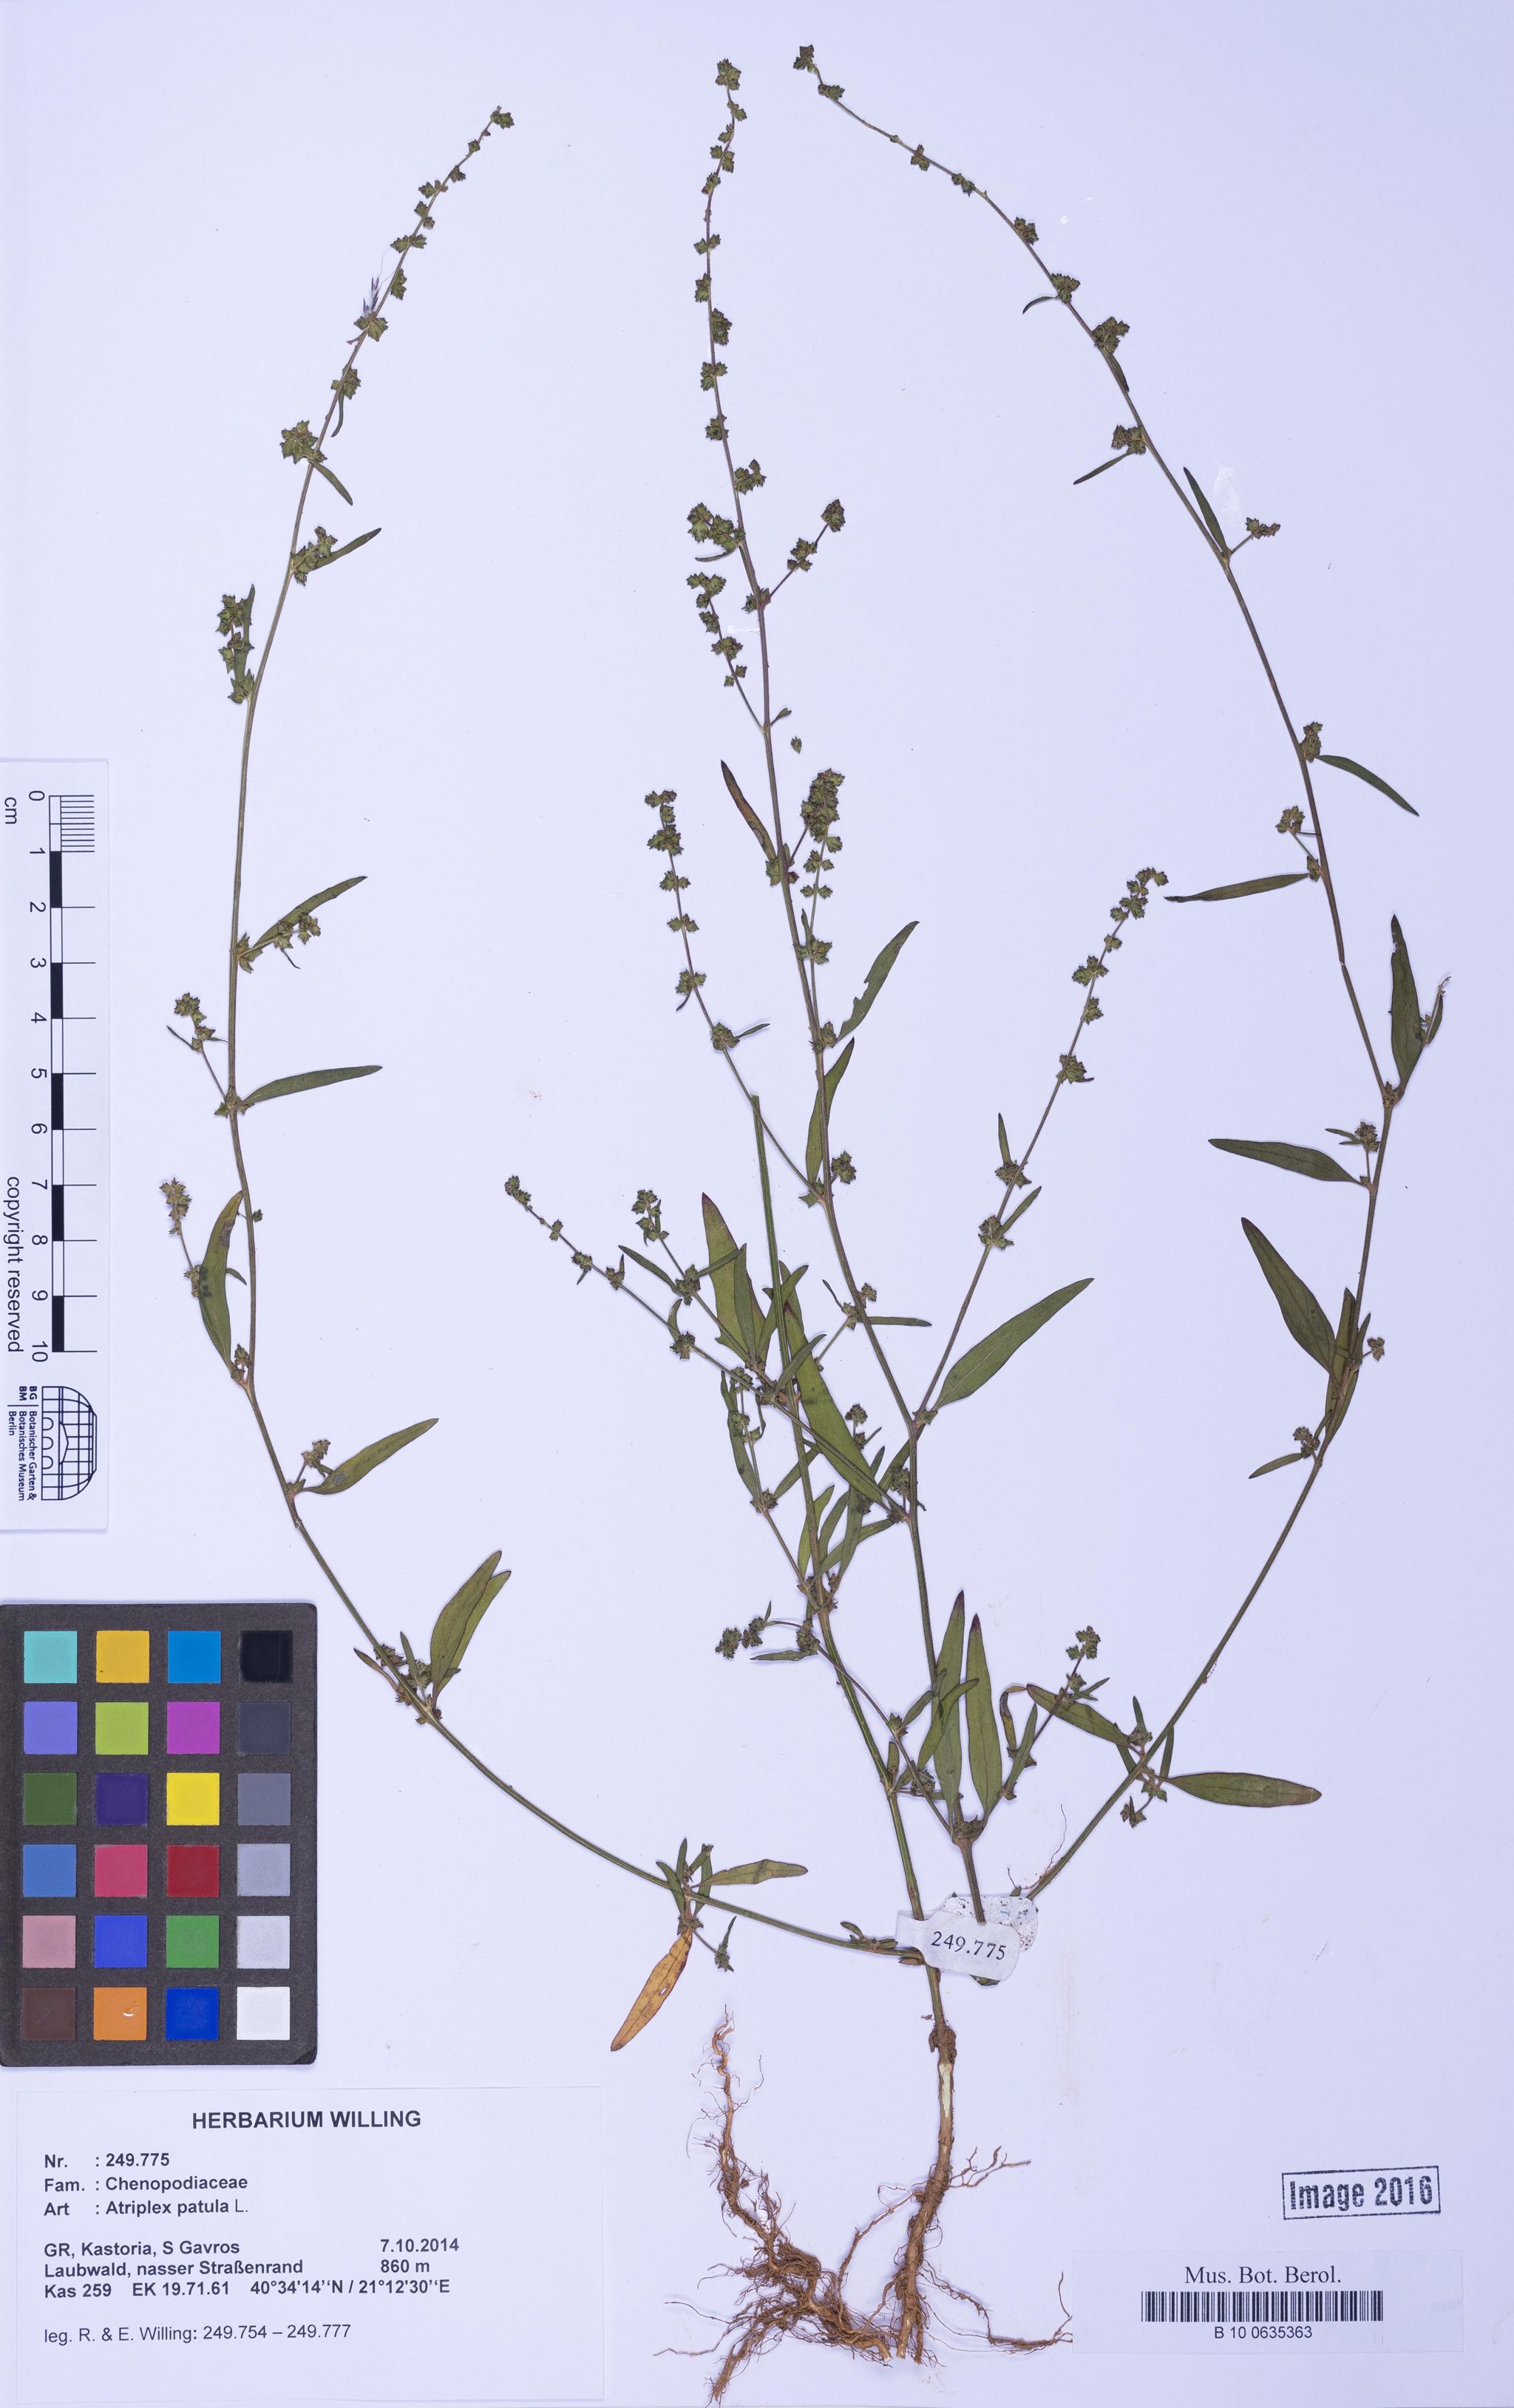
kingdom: Plantae
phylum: Tracheophyta
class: Magnoliopsida
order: Caryophyllales
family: Amaranthaceae
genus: Atriplex
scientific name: Atriplex patula
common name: Common orache
